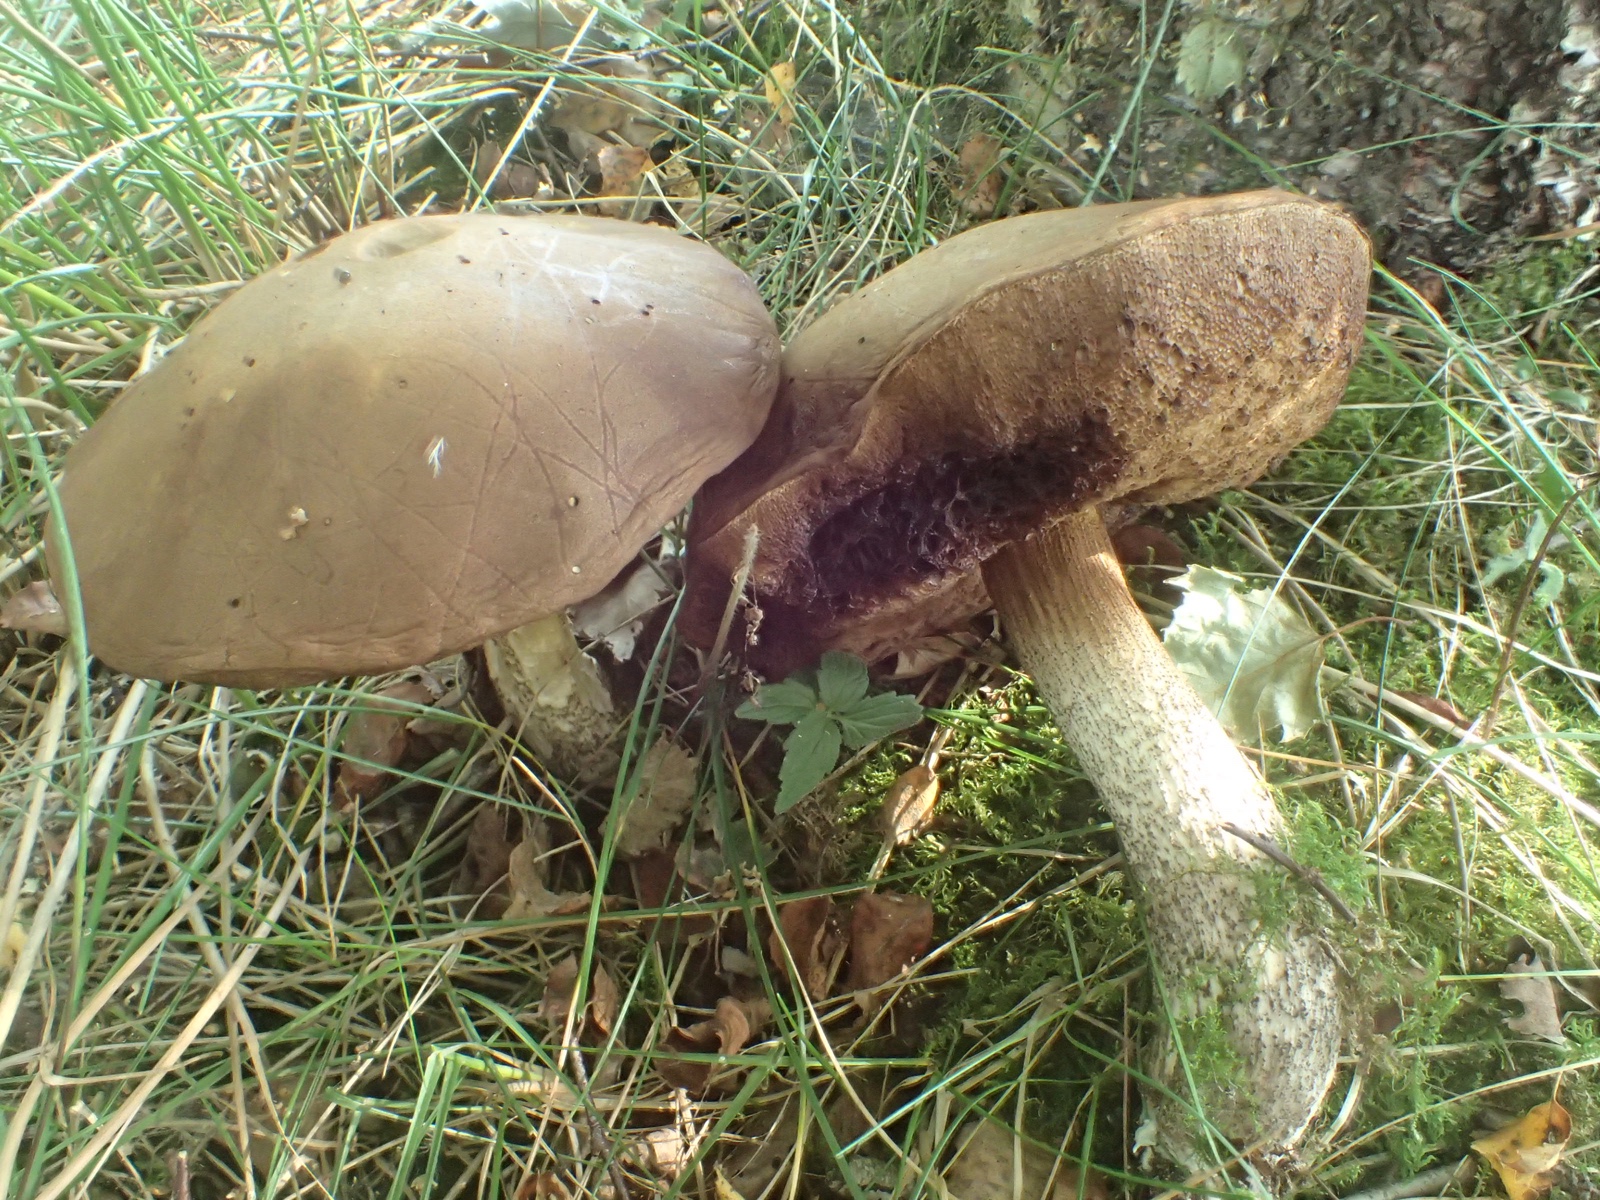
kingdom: Fungi
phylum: Basidiomycota
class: Agaricomycetes
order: Boletales
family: Boletaceae
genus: Leccinum
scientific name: Leccinum
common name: skælrørhat
